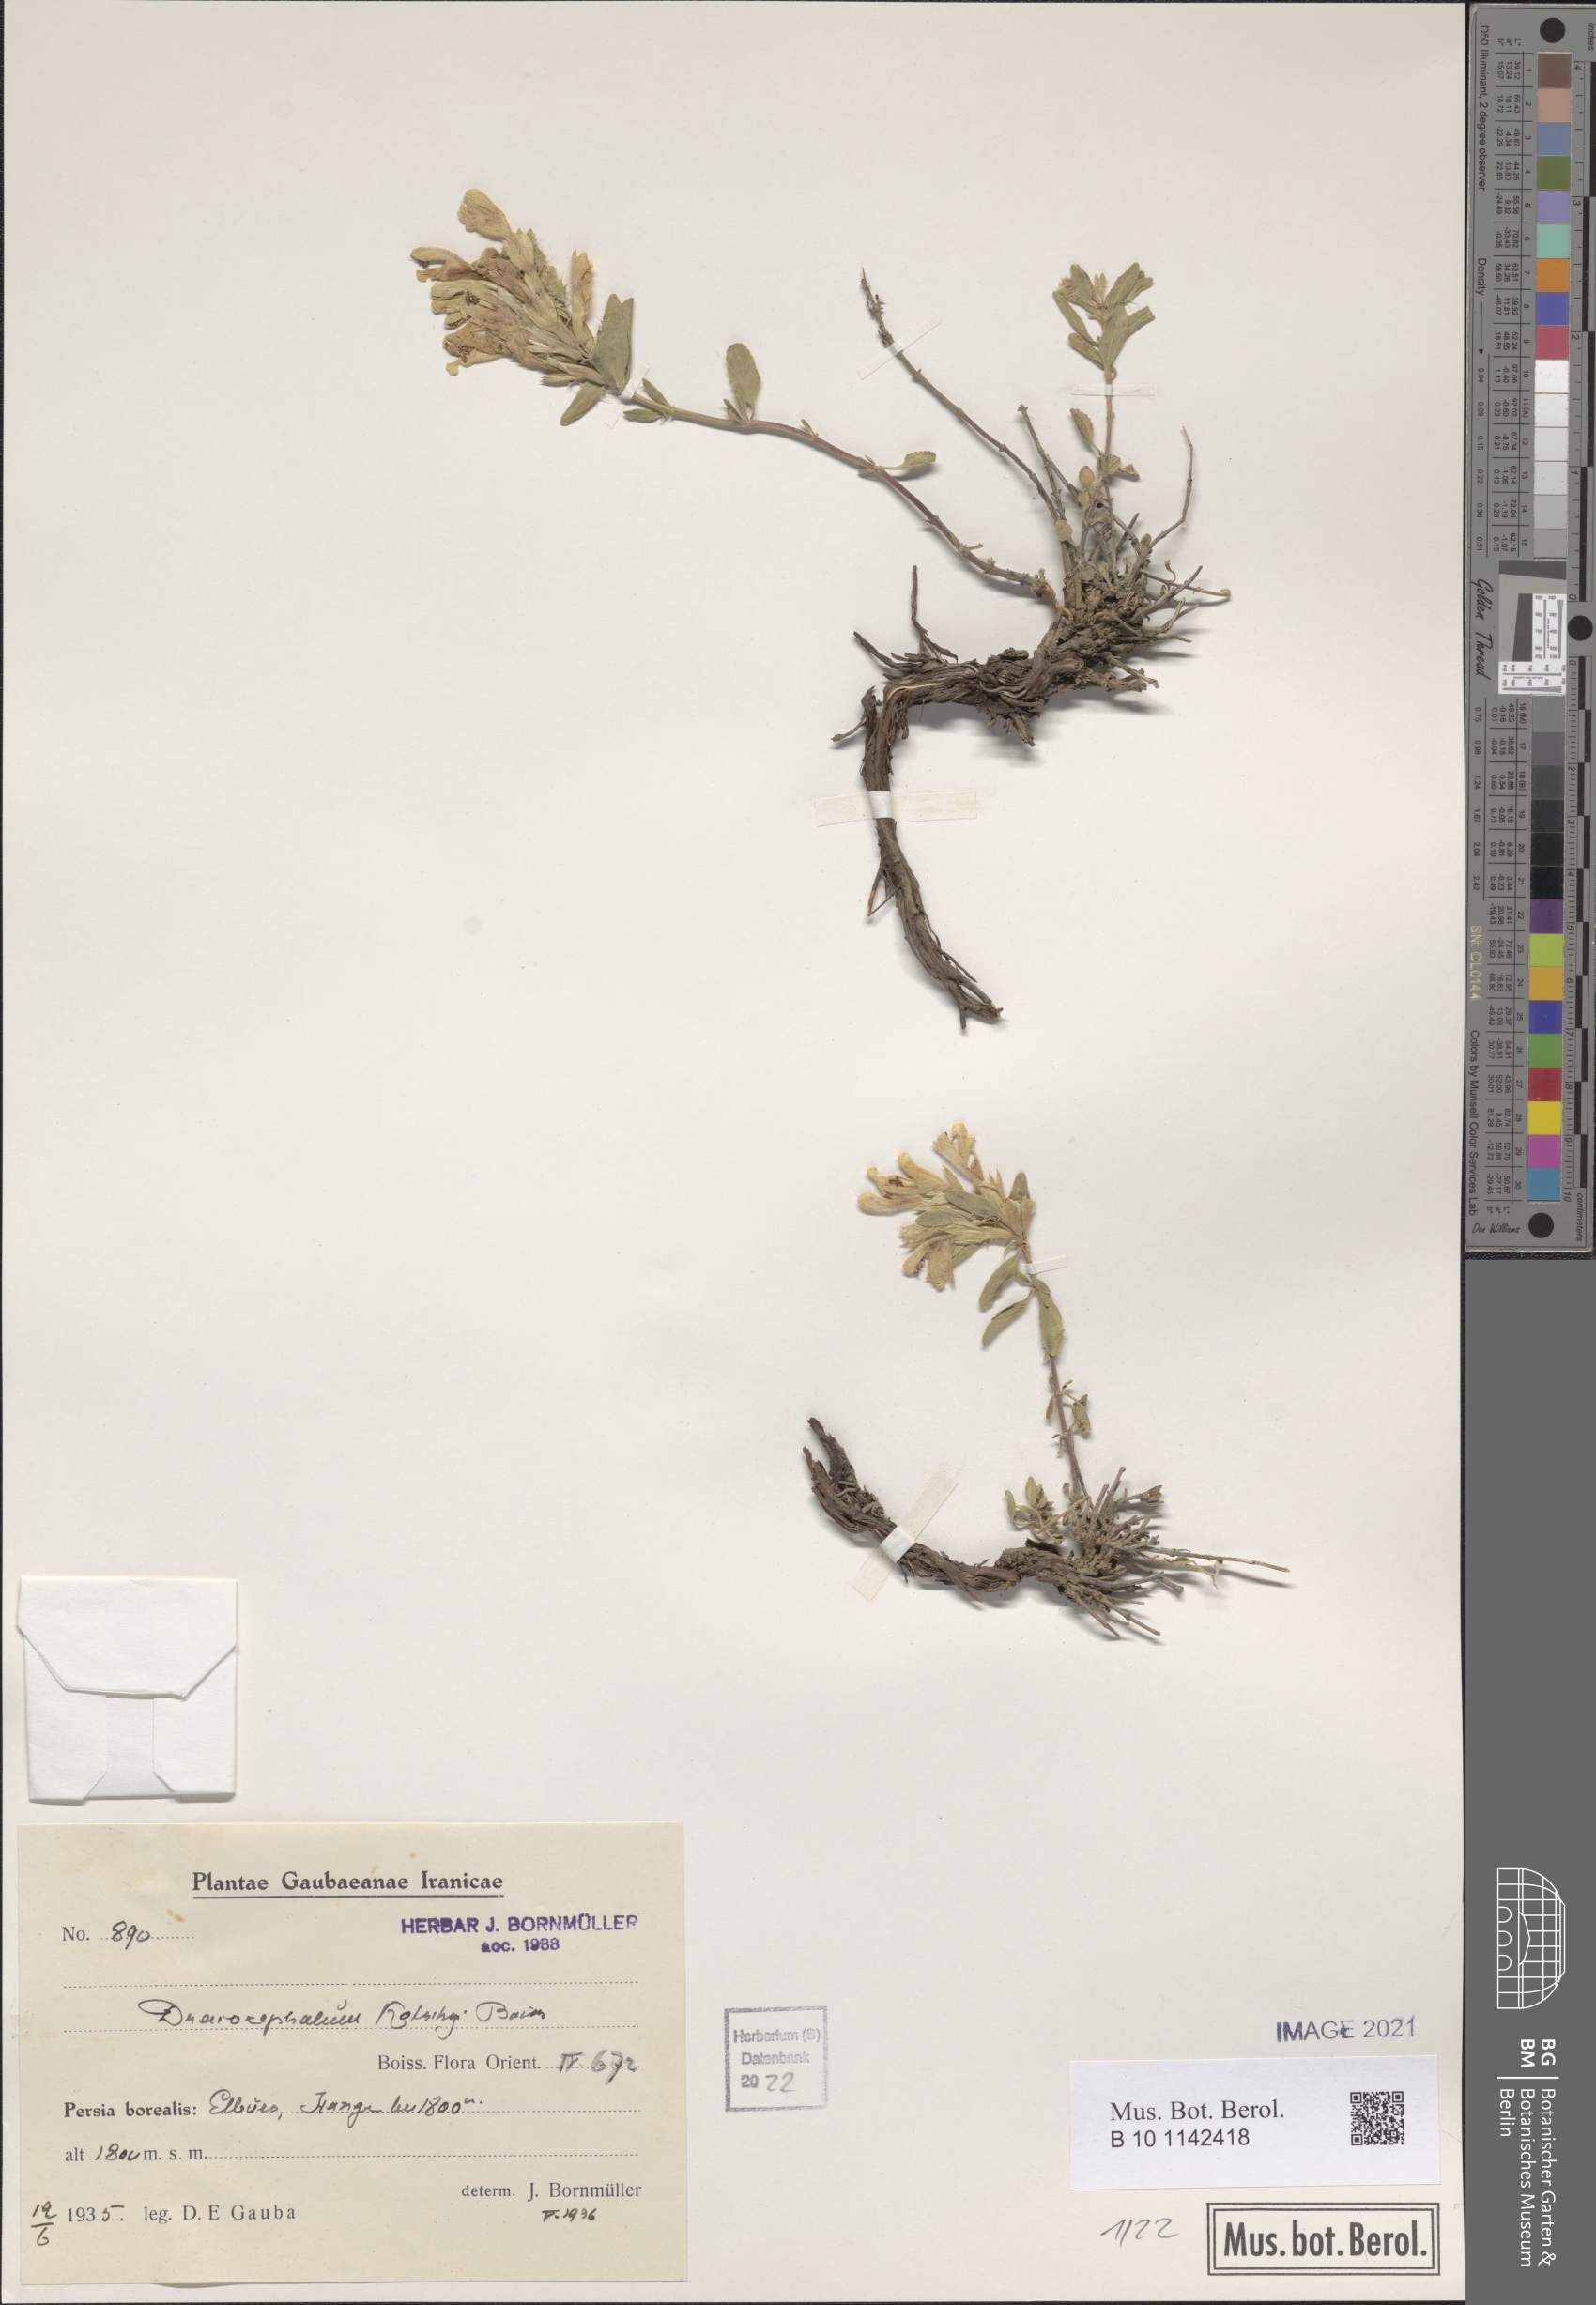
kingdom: Plantae
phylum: Tracheophyta
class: Magnoliopsida
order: Lamiales
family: Lamiaceae
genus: Dracocephalum
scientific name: Dracocephalum kotschyi
